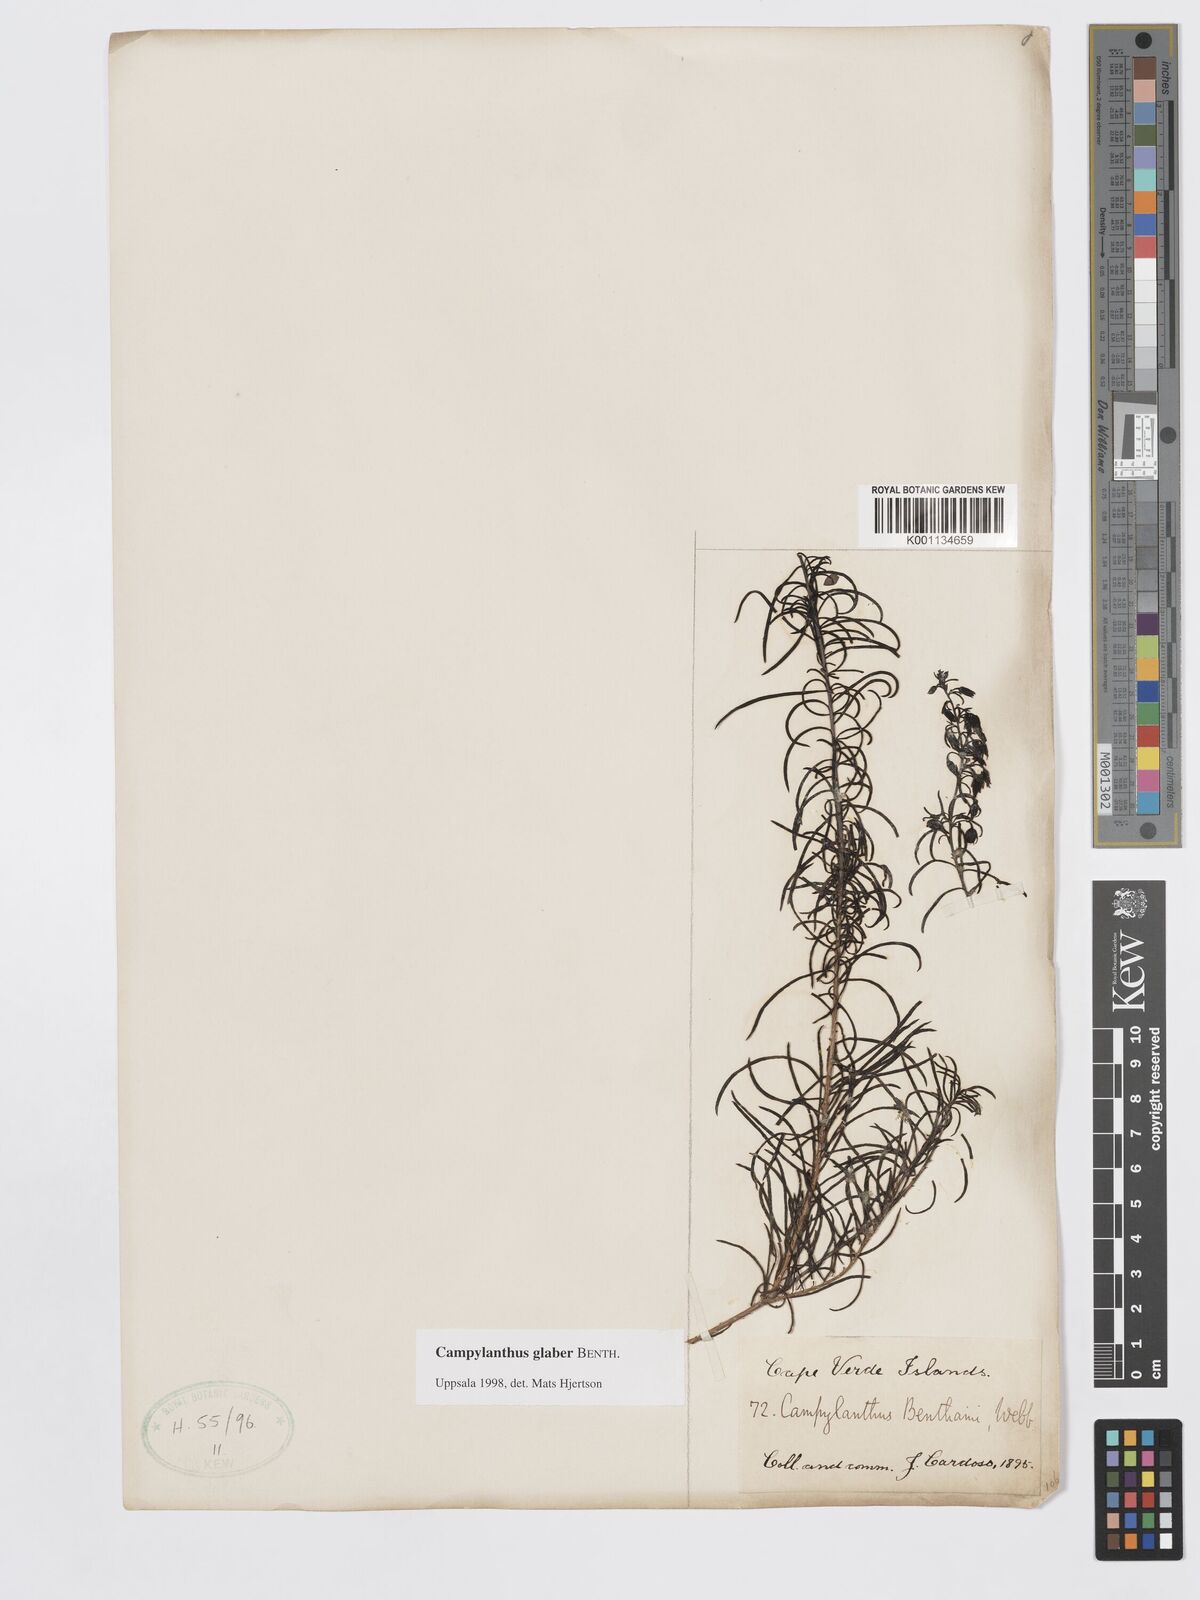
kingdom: Plantae
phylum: Tracheophyta
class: Magnoliopsida
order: Lamiales
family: Plantaginaceae
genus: Campylanthus
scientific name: Campylanthus glaber
